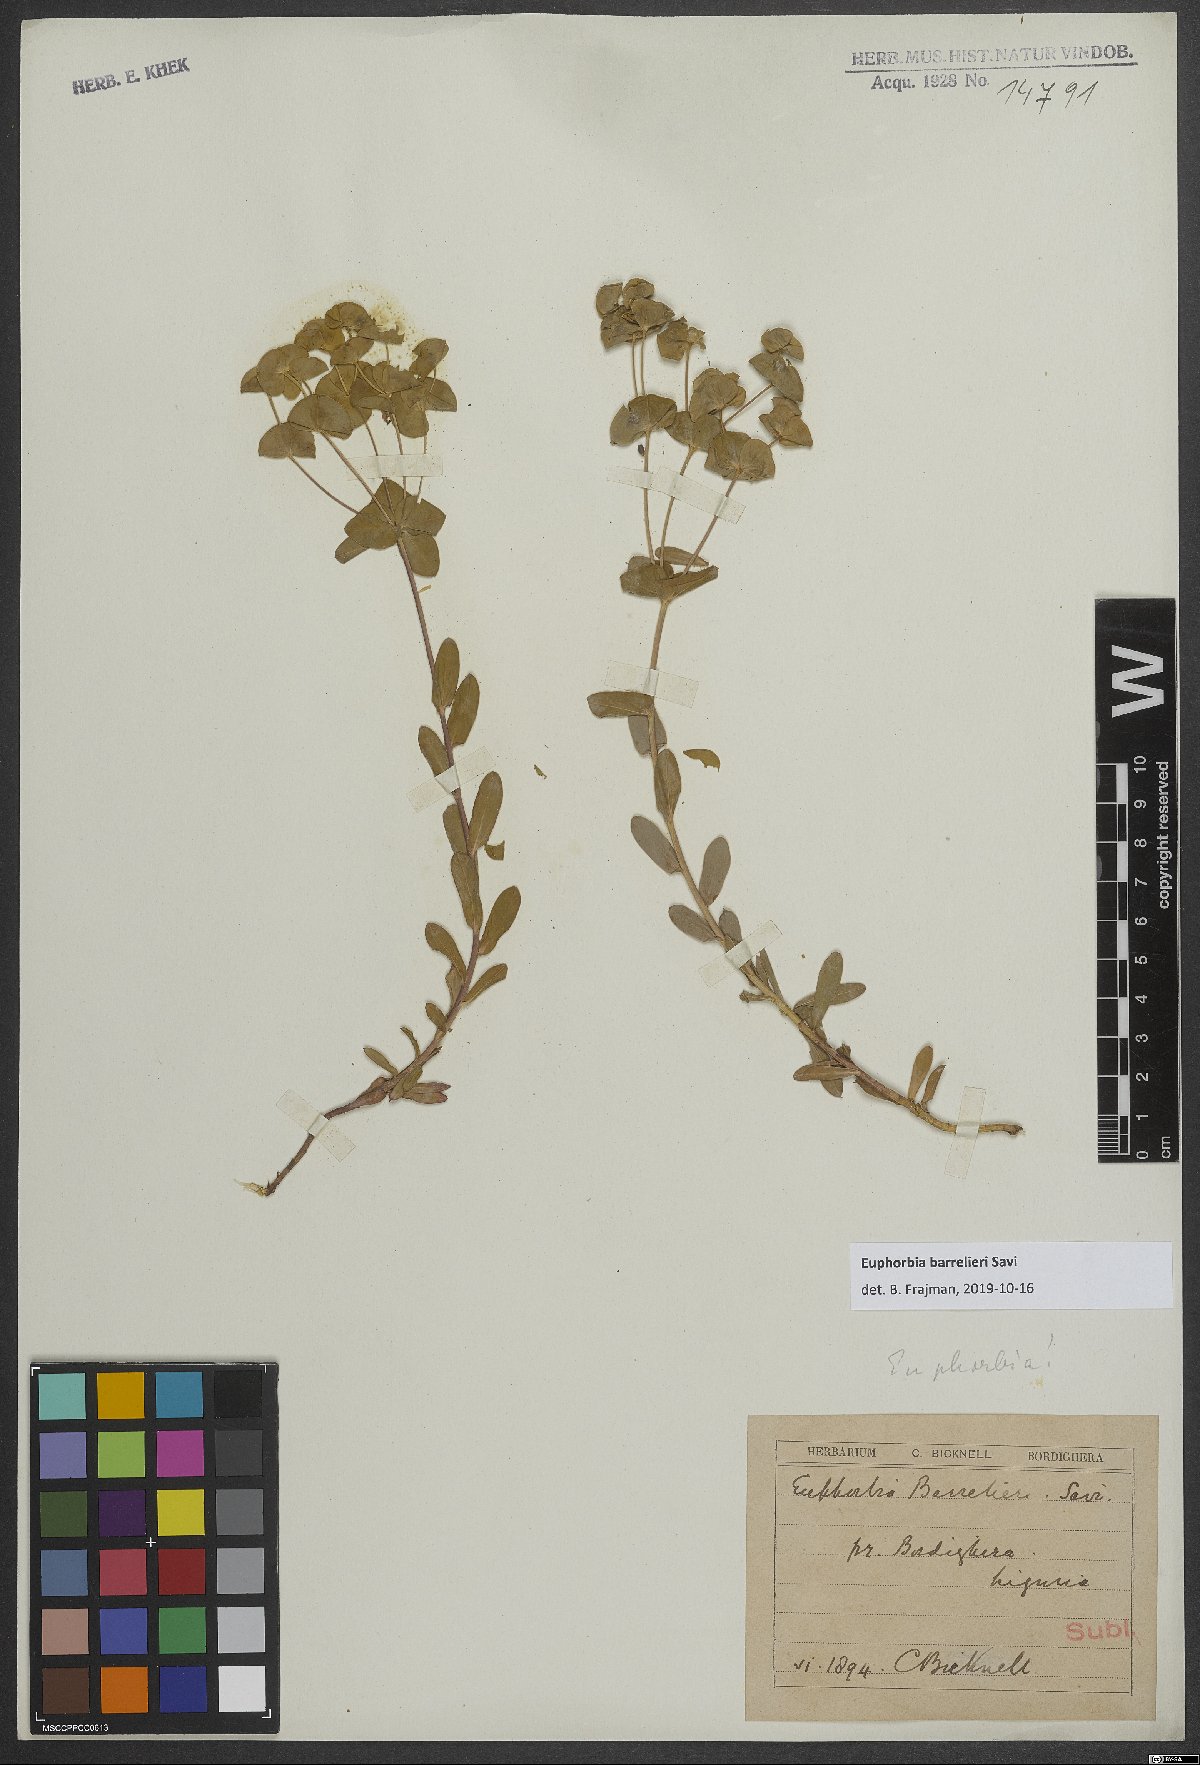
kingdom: Plantae
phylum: Tracheophyta
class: Magnoliopsida
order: Malpighiales
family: Euphorbiaceae
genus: Euphorbia
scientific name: Euphorbia
